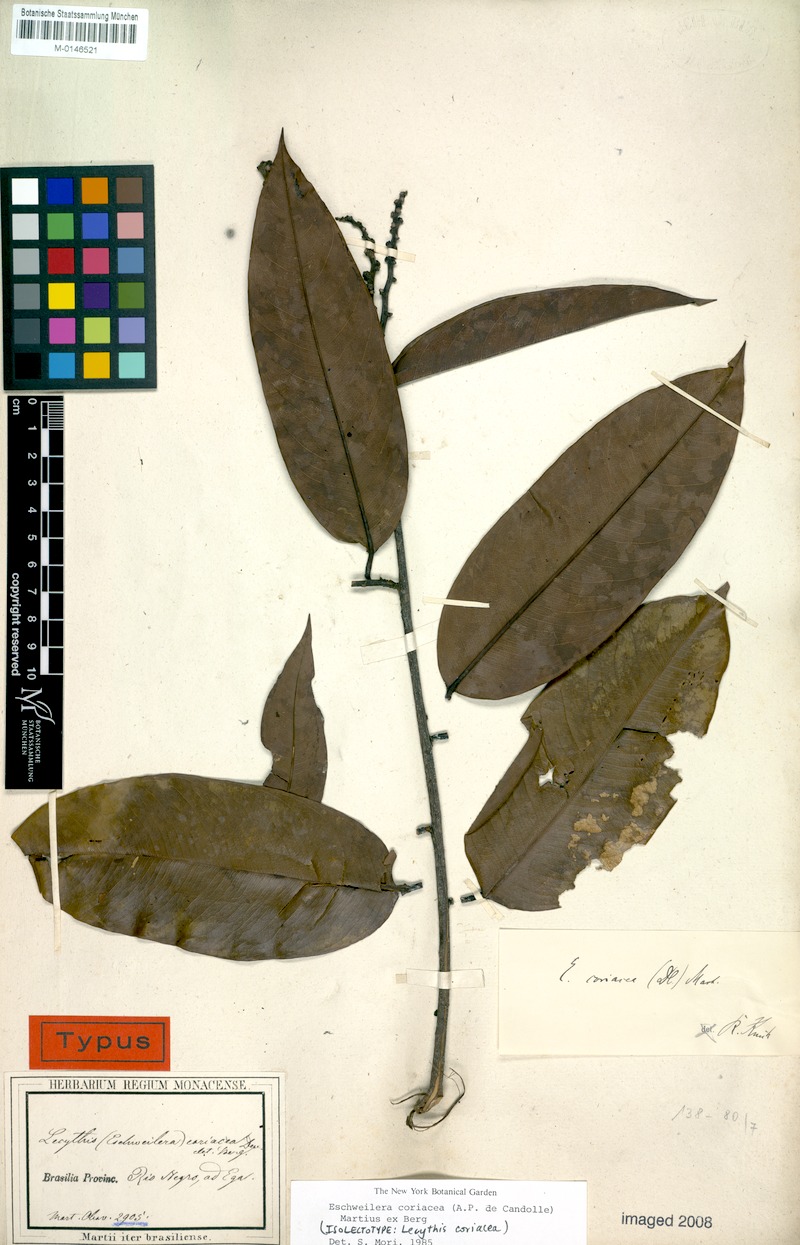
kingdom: Plantae
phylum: Tracheophyta
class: Magnoliopsida
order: Ericales
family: Lecythidaceae
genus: Eschweilera
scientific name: Eschweilera coriacea
